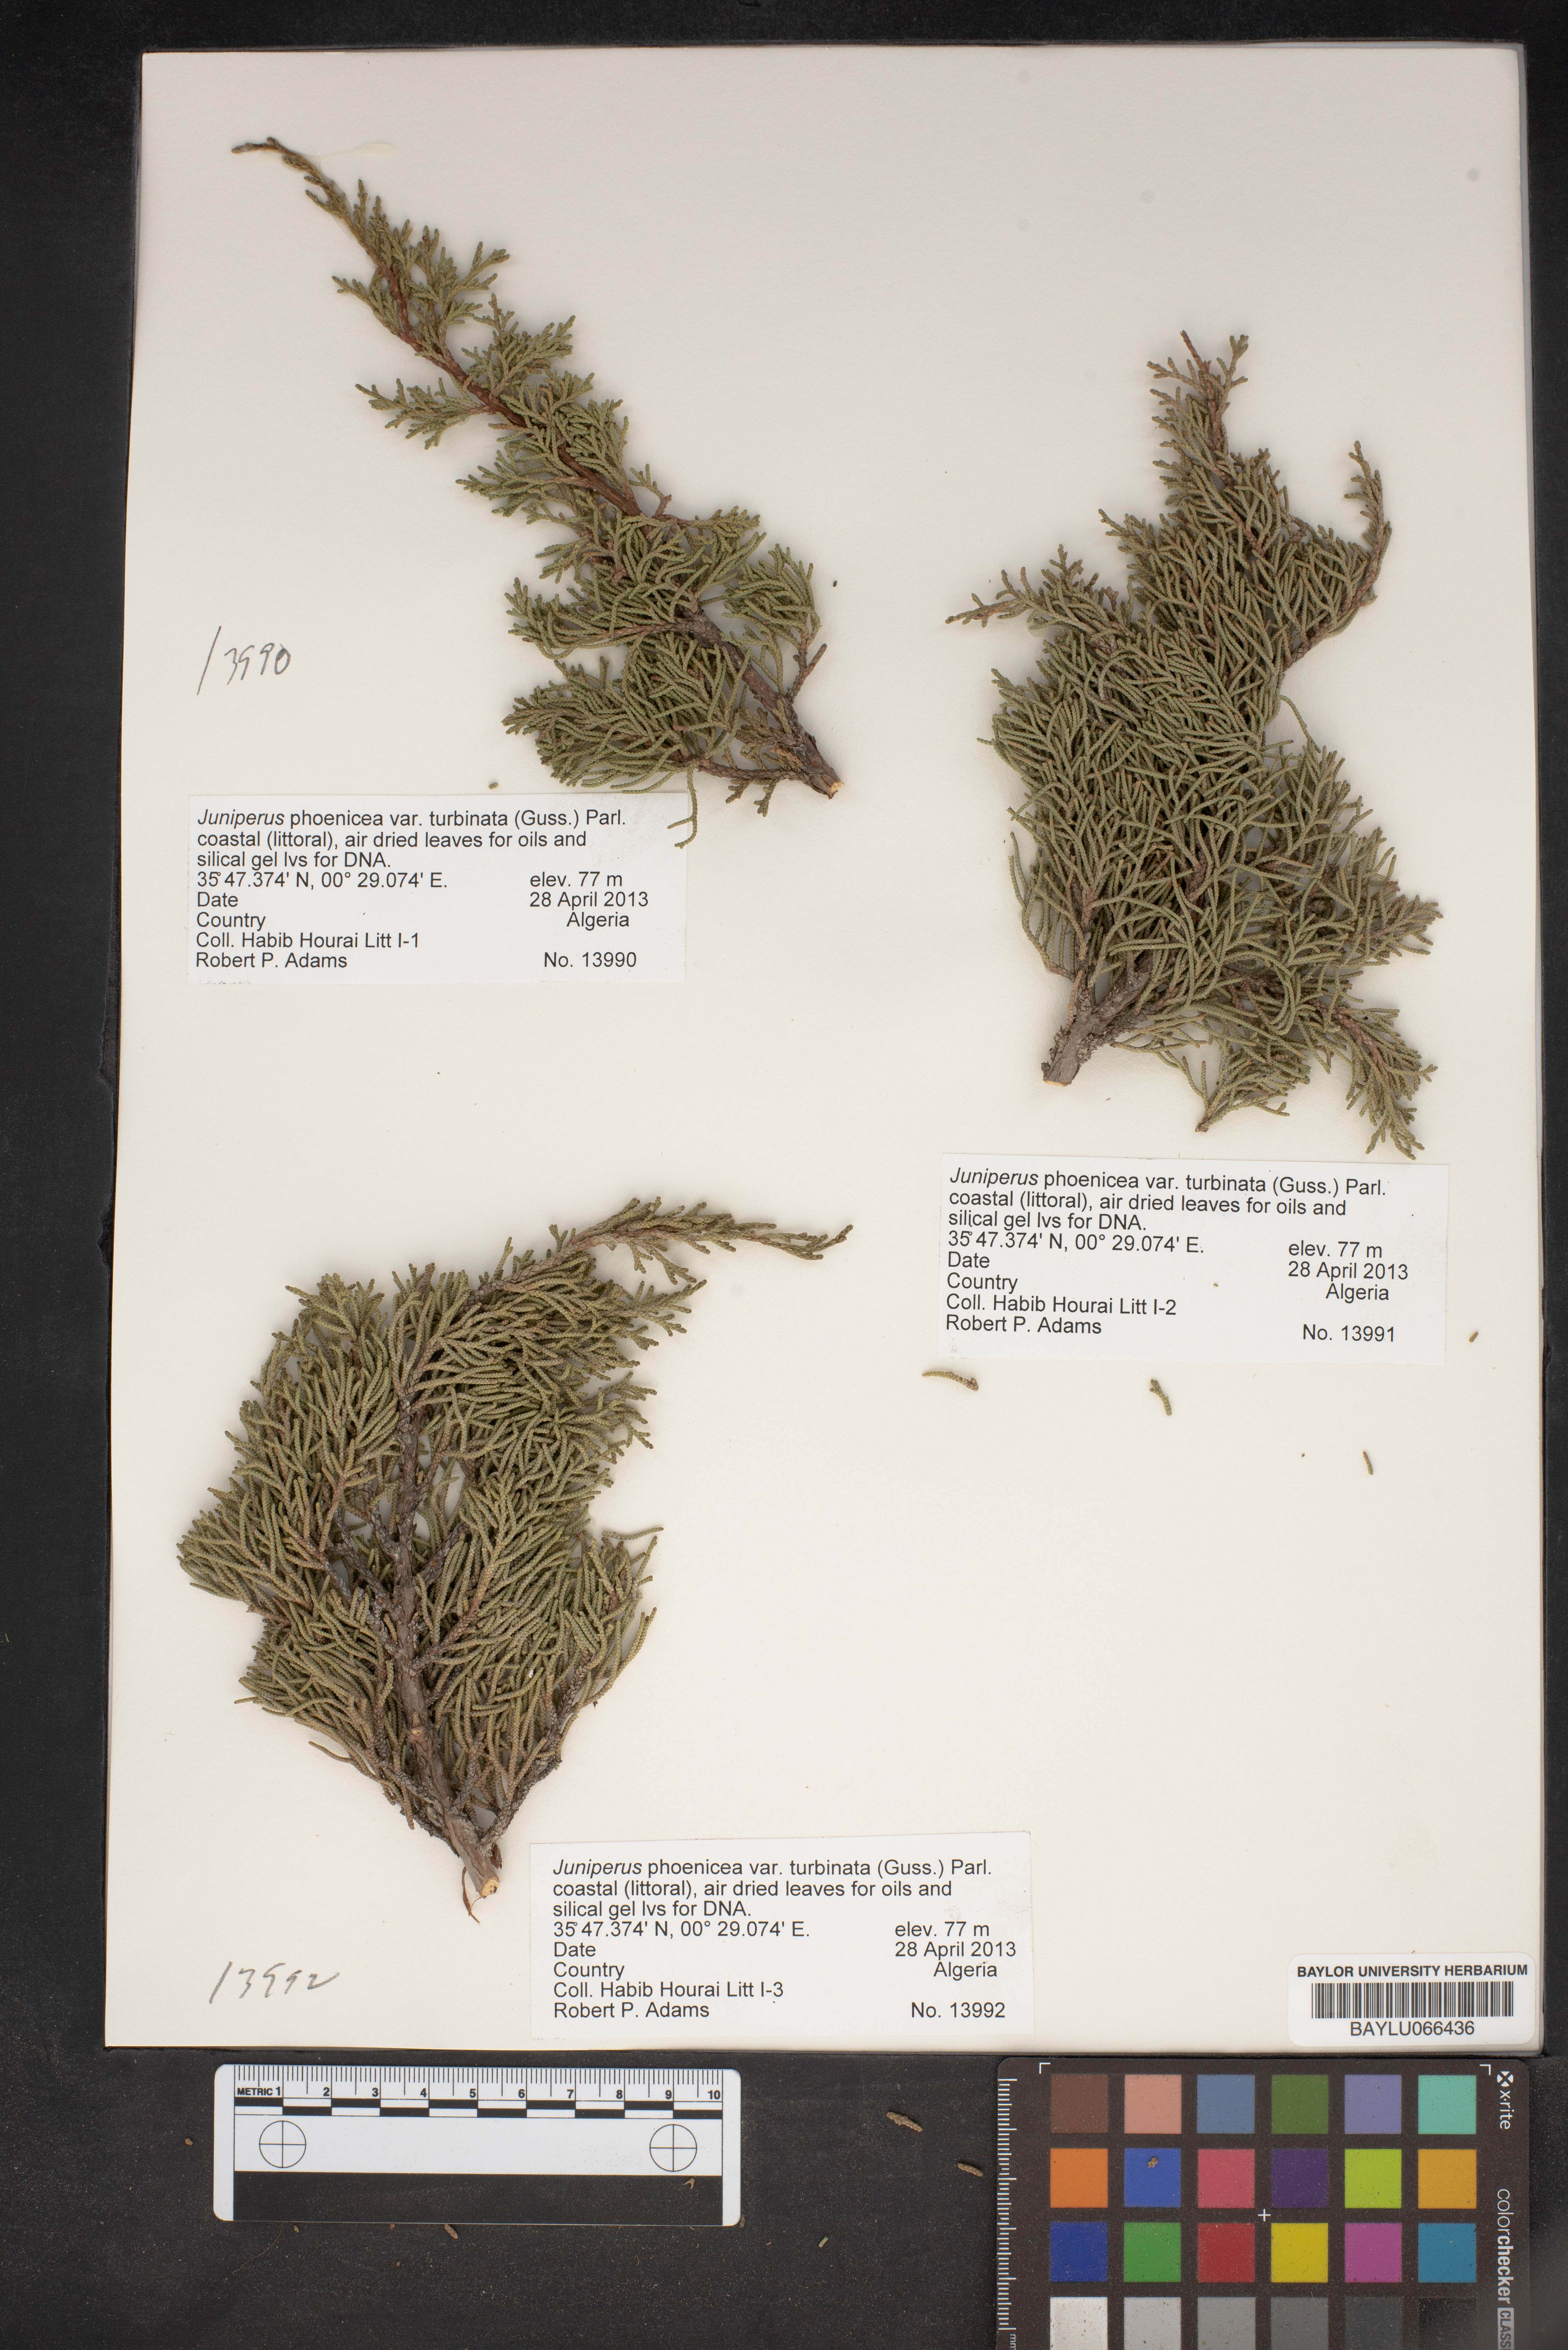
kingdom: Plantae
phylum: Tracheophyta
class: Pinopsida
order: Pinales
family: Cupressaceae
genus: Juniperus
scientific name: Juniperus phoenicea
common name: Phoenician juniper
